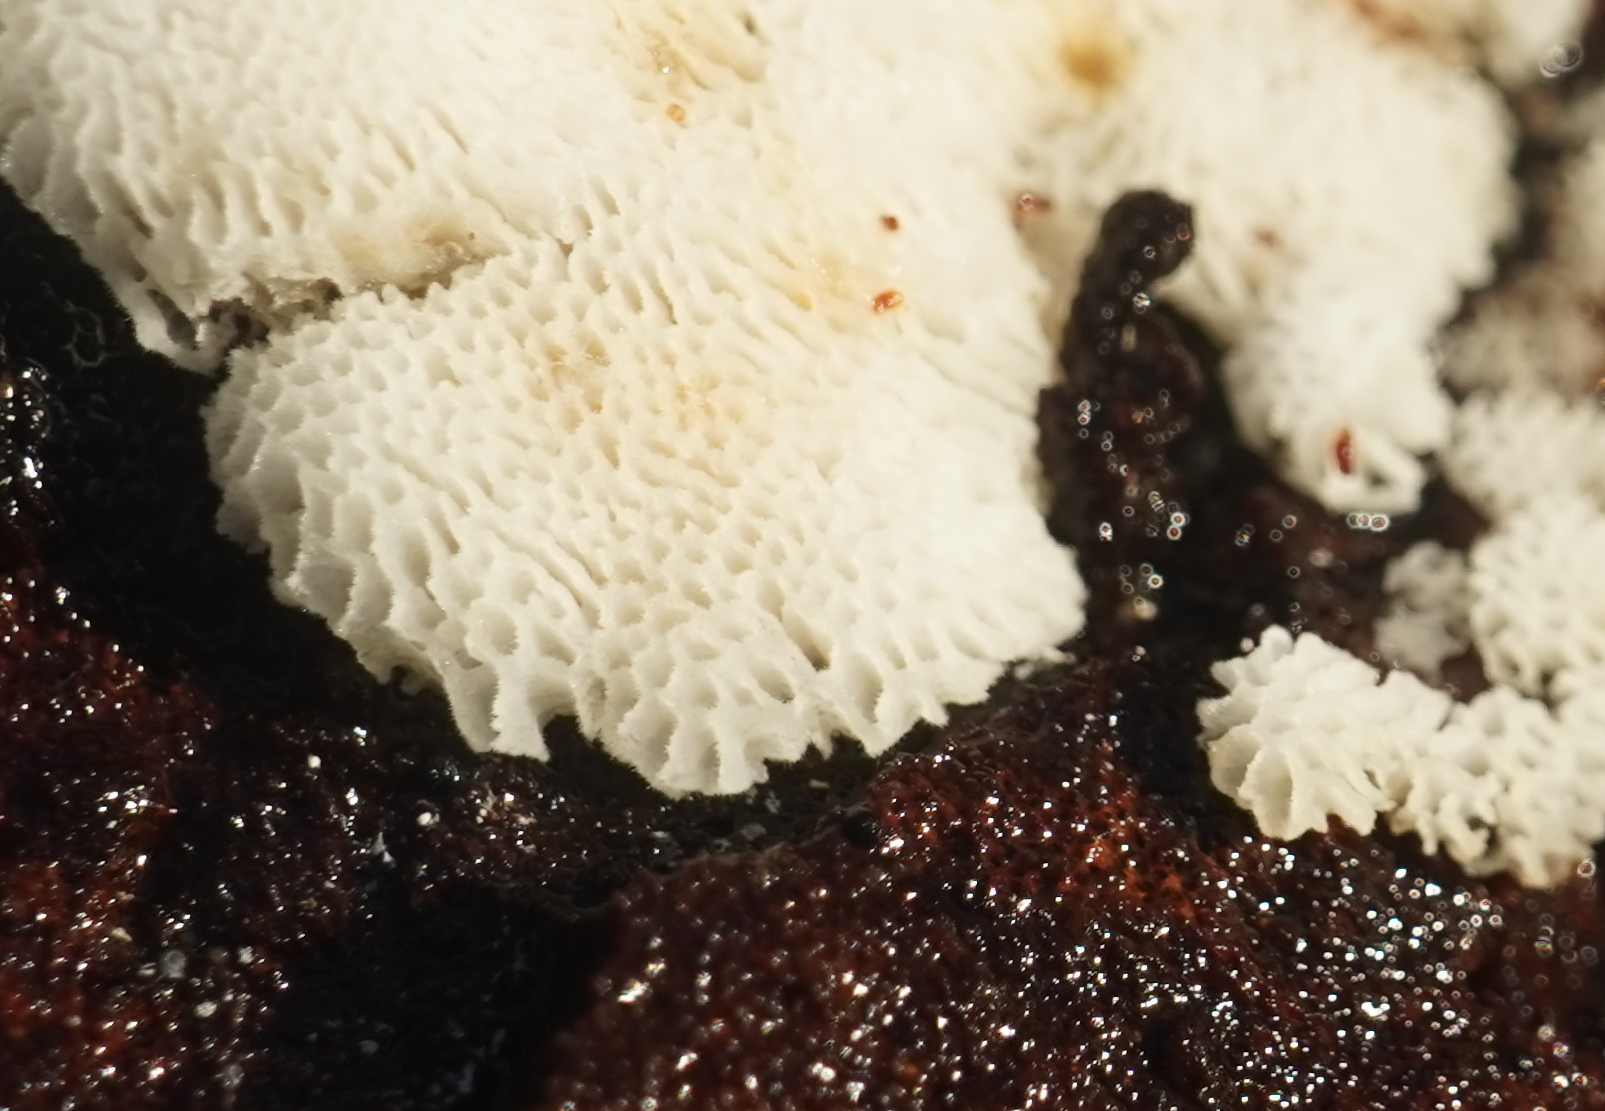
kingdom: Fungi
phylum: Basidiomycota
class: Agaricomycetes
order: Polyporales
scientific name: Polyporales
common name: poresvampordenen
